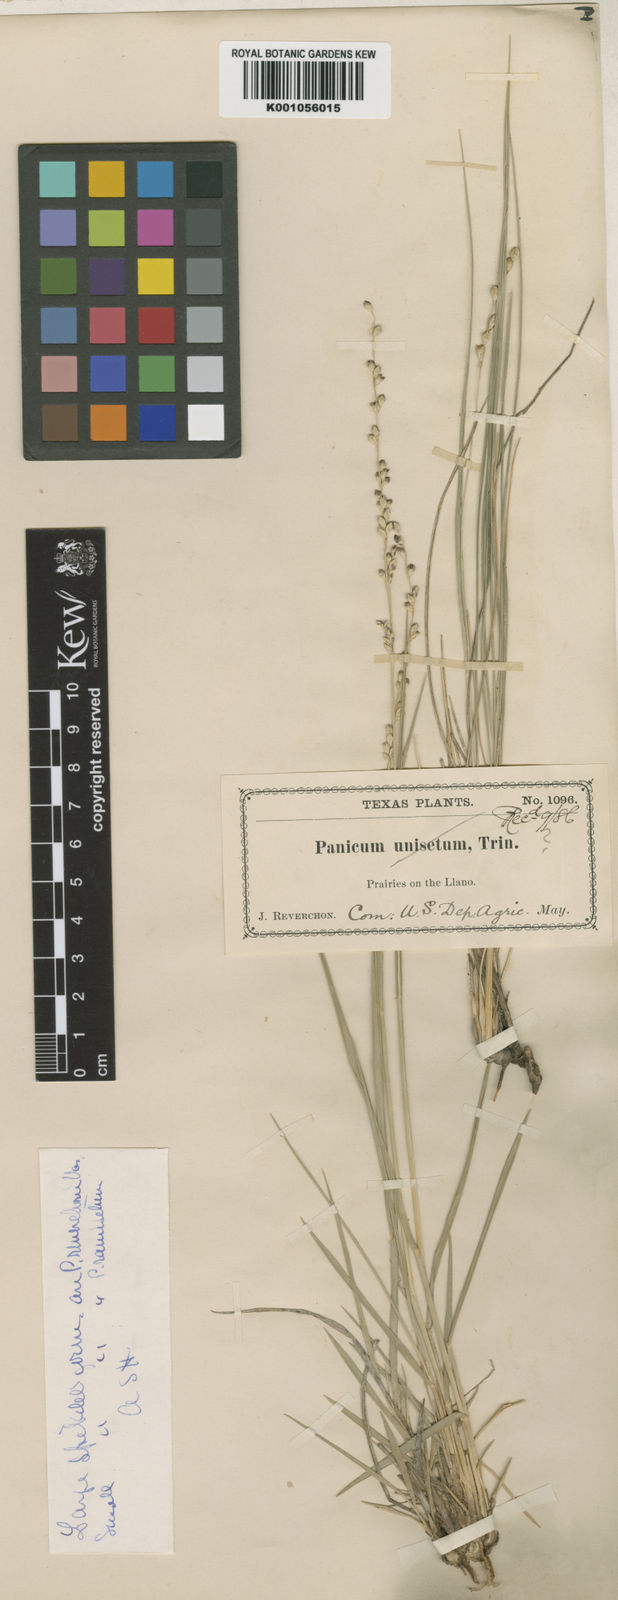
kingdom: Plantae
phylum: Tracheophyta
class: Liliopsida
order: Poales
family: Poaceae
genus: Setaria
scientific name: Setaria
